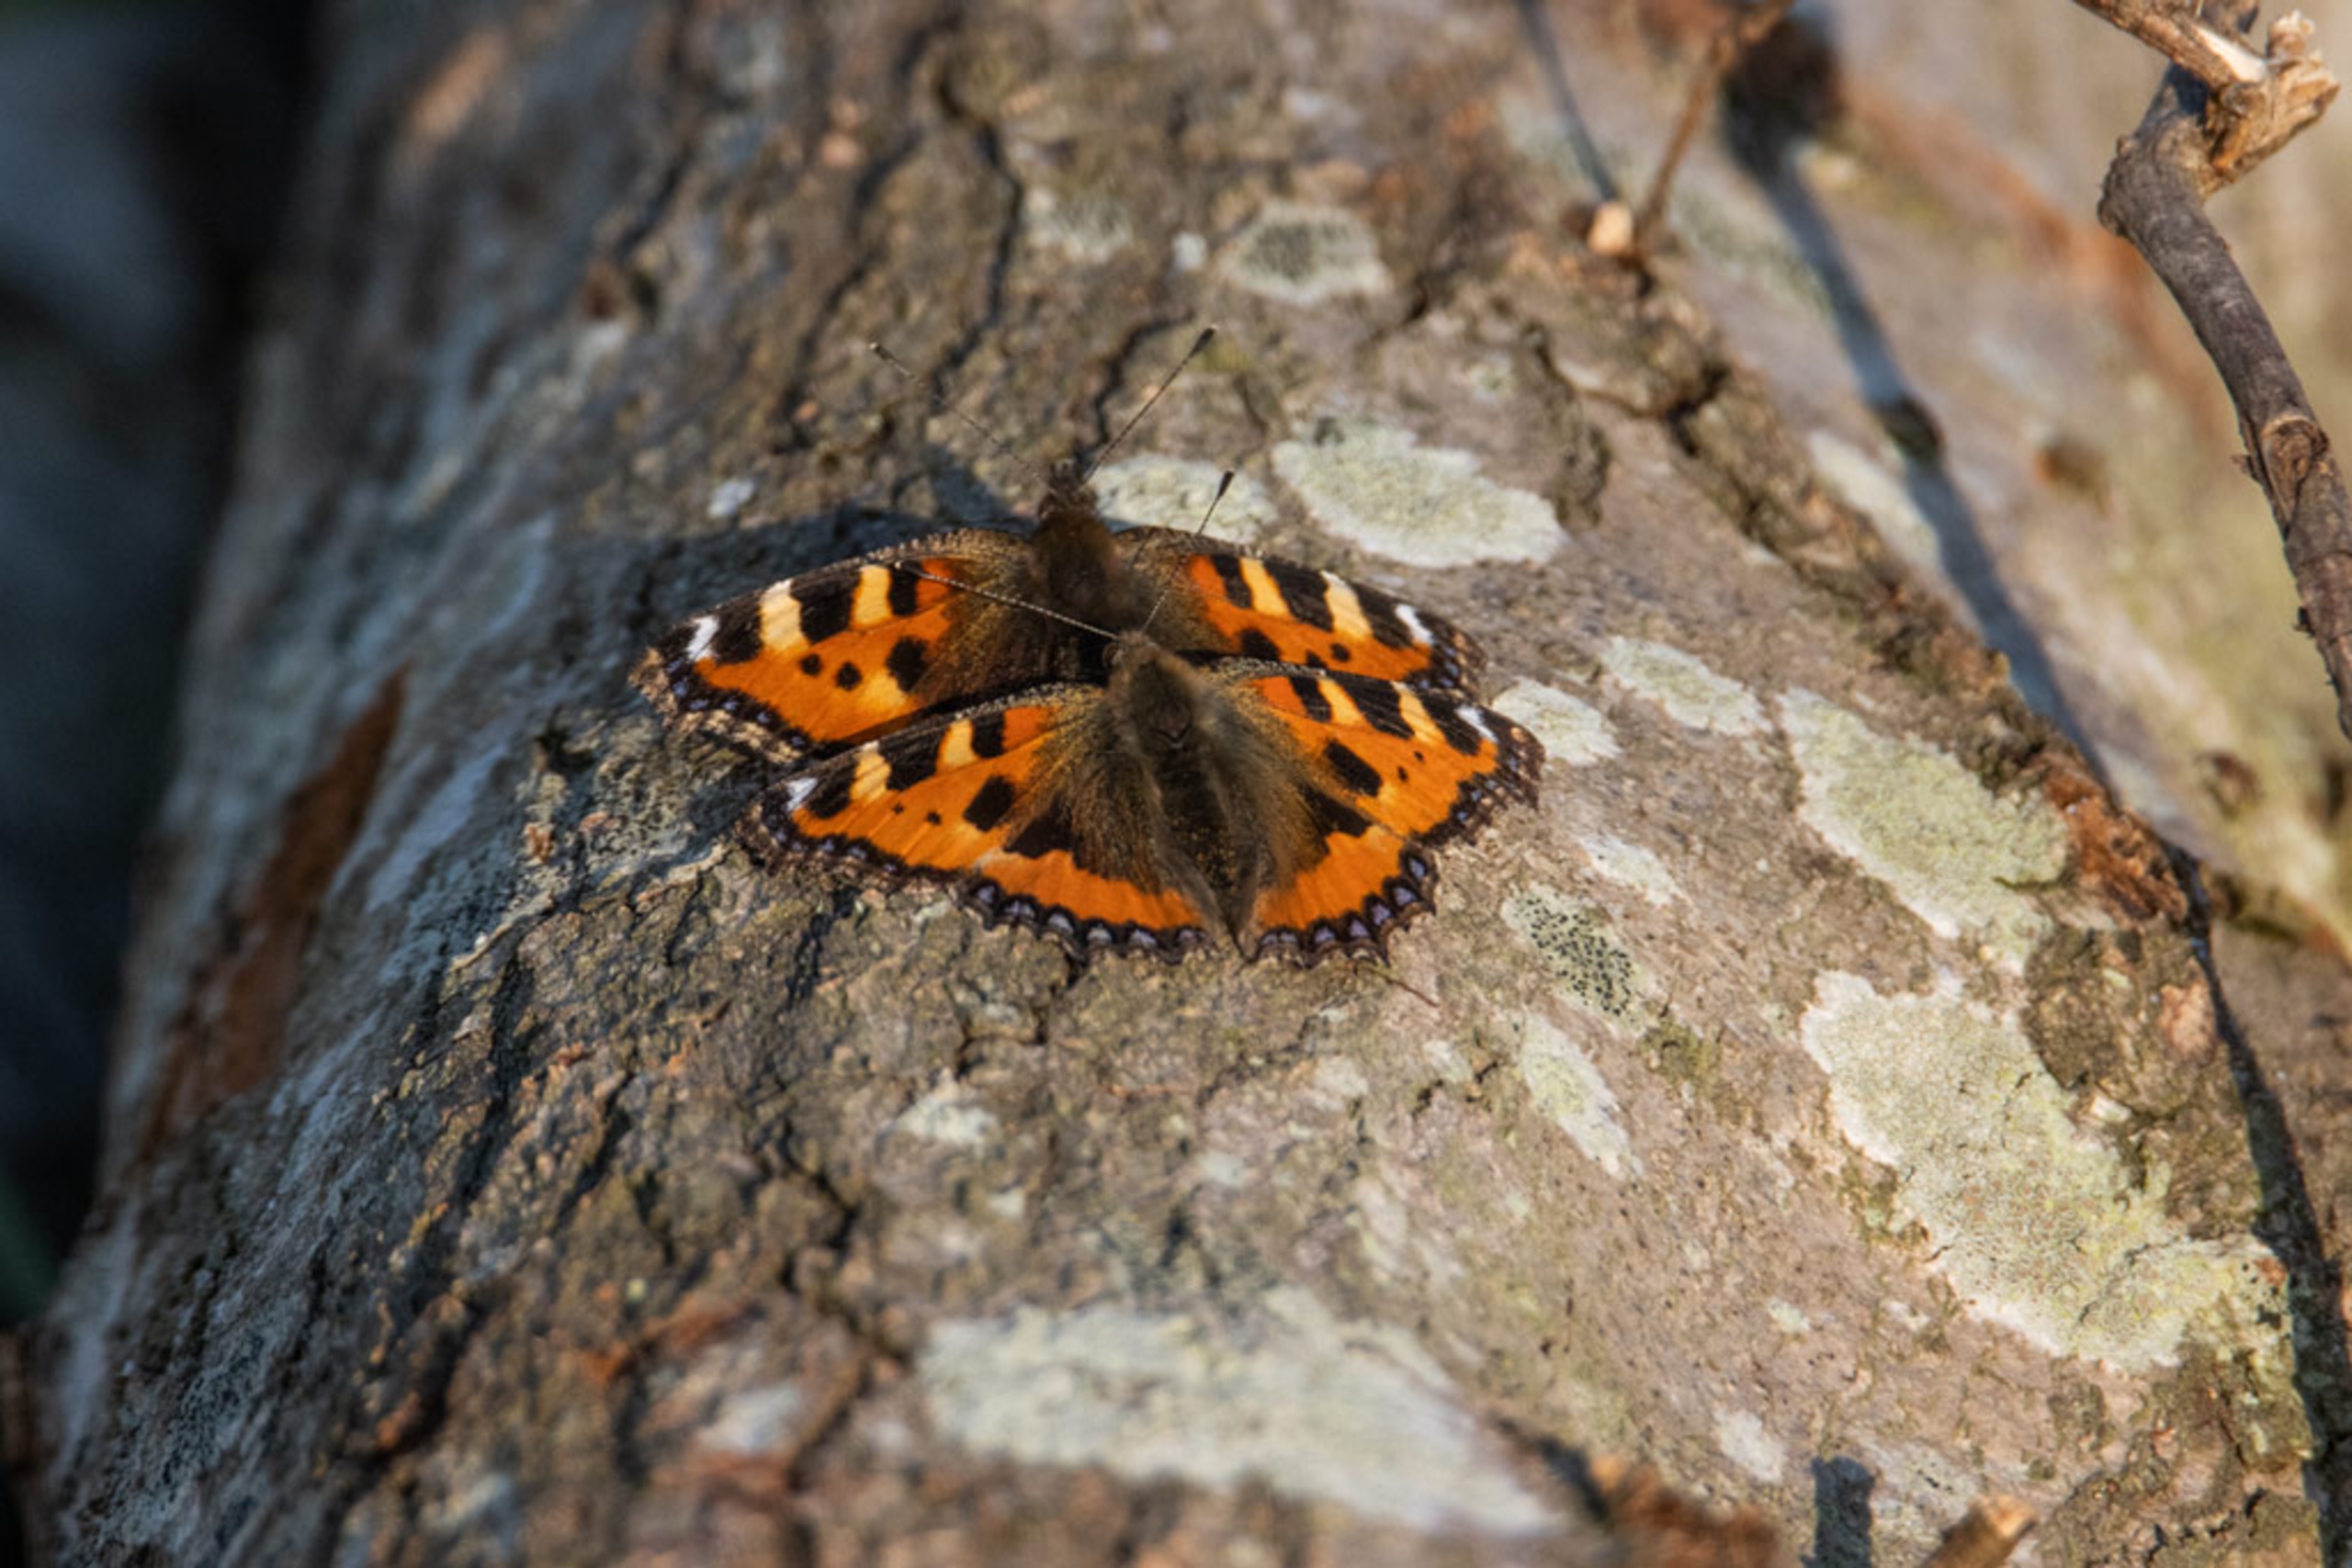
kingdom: Animalia
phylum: Arthropoda
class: Insecta
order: Lepidoptera
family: Nymphalidae
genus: Aglais
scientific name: Aglais urticae
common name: Nældens takvinge
